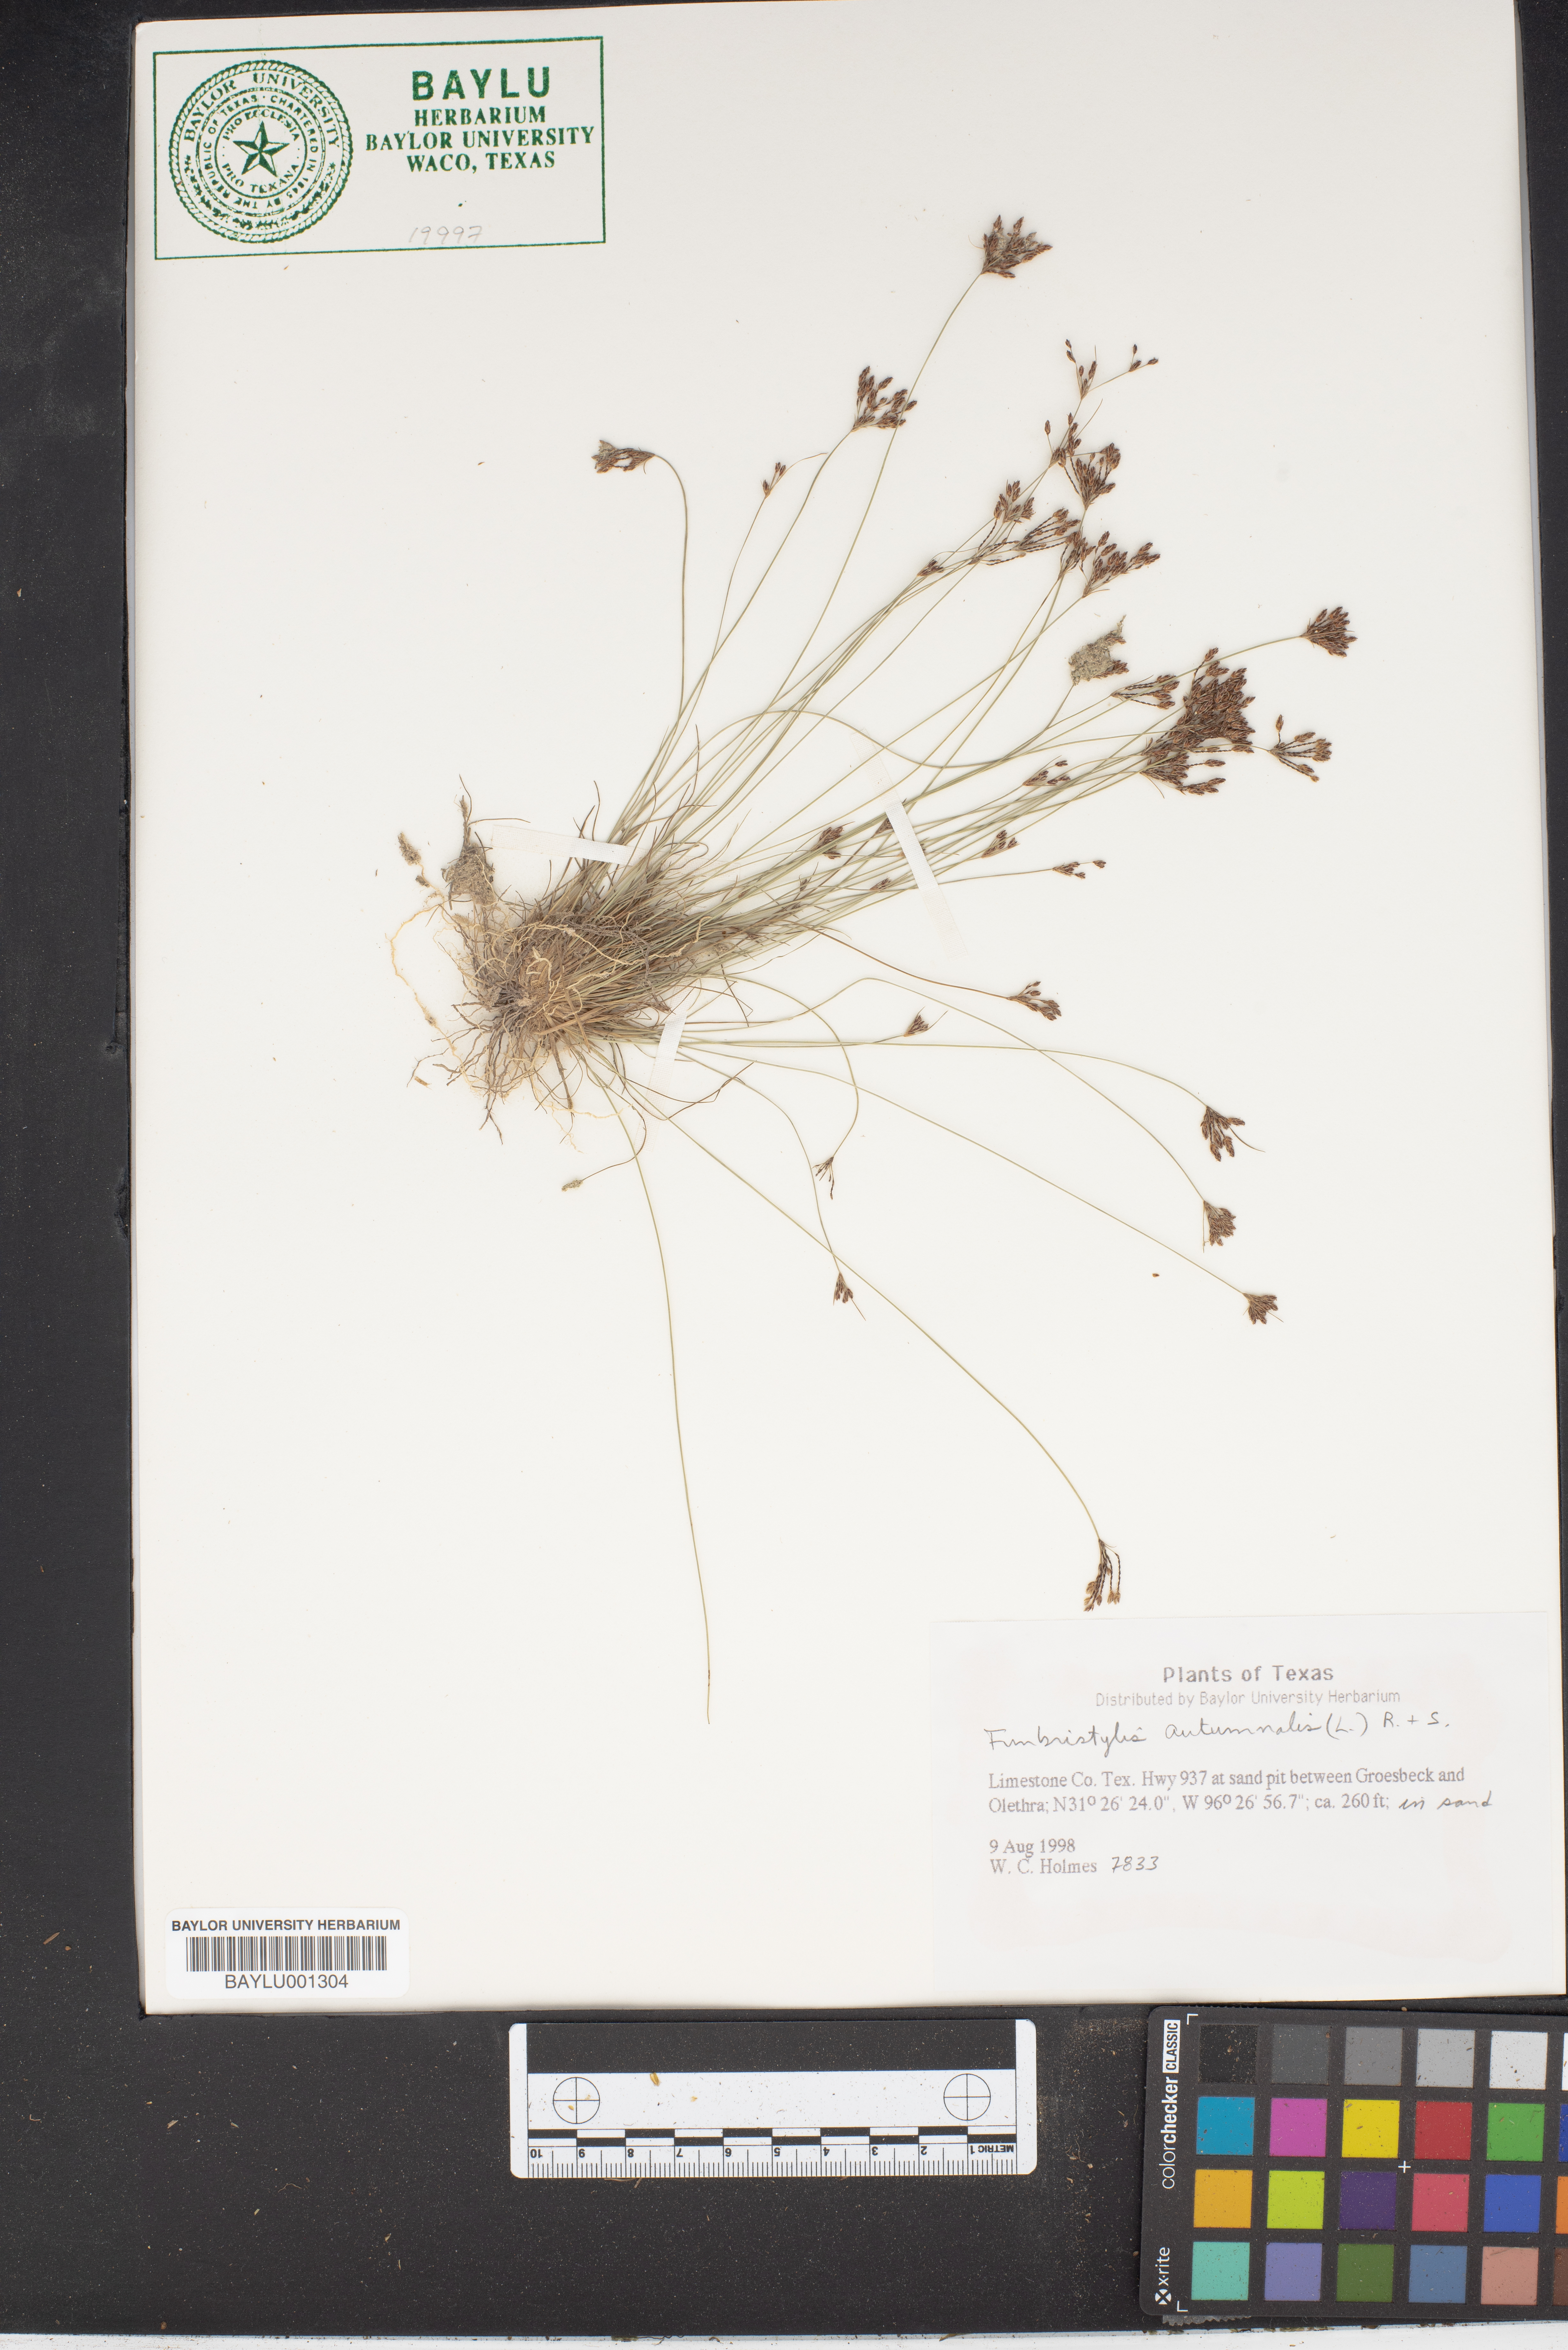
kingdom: Plantae
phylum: Tracheophyta
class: Liliopsida
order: Poales
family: Cyperaceae
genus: Fimbristylis
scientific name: Fimbristylis autumnalis
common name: Slender fimbristylis
